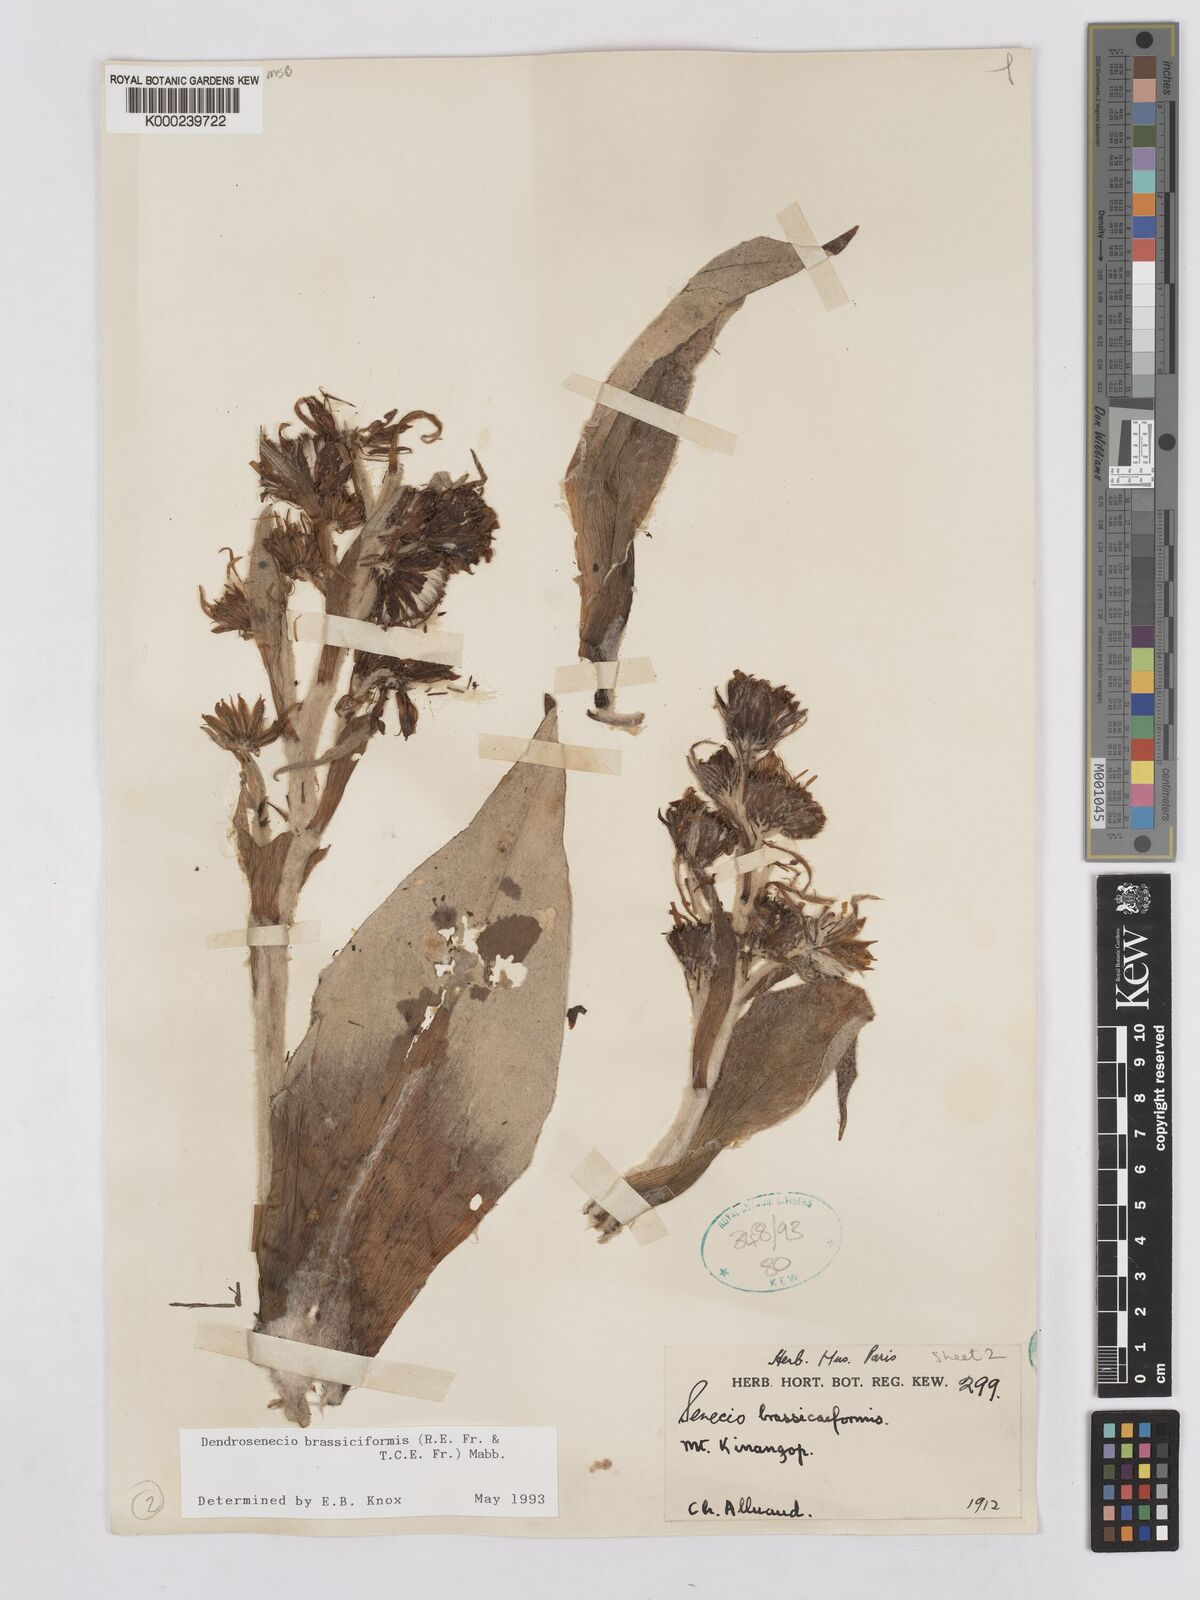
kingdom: Plantae
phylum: Tracheophyta
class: Magnoliopsida
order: Asterales
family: Asteraceae
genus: Dendrosenecio
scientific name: Dendrosenecio brassiciformis
